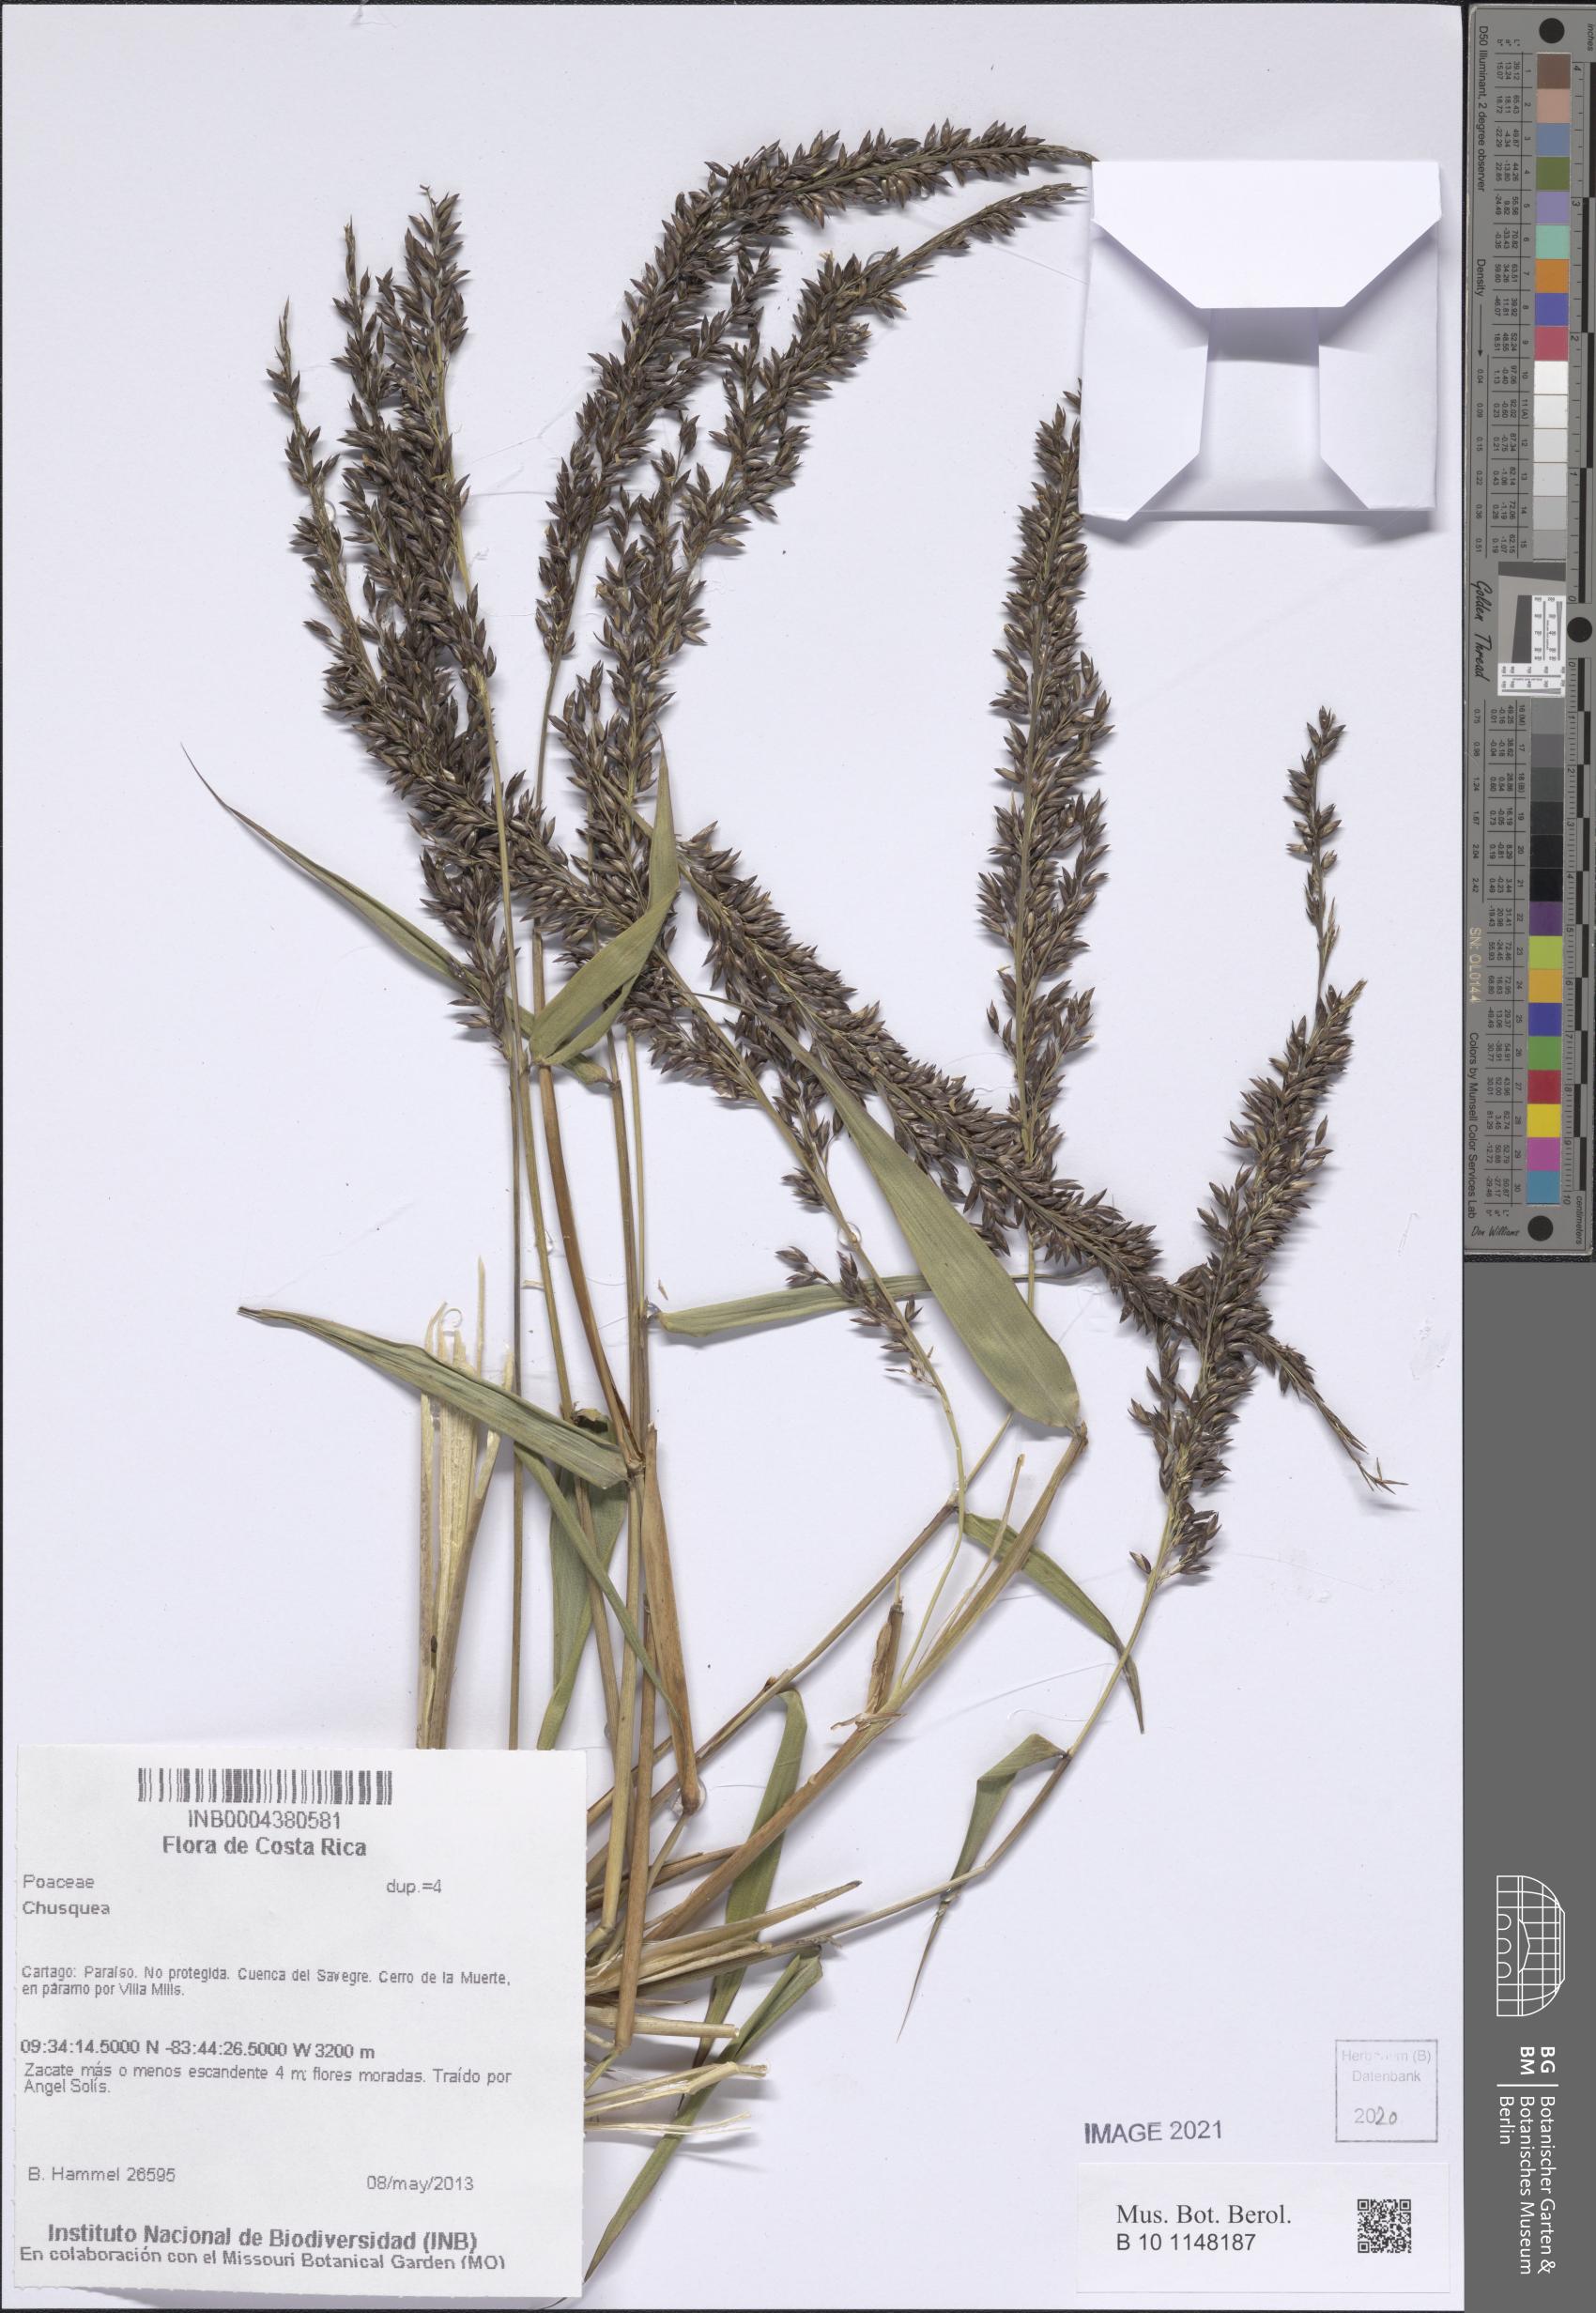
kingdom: Plantae
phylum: Tracheophyta
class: Liliopsida
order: Poales
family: Poaceae
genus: Chusquea
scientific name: Chusquea
